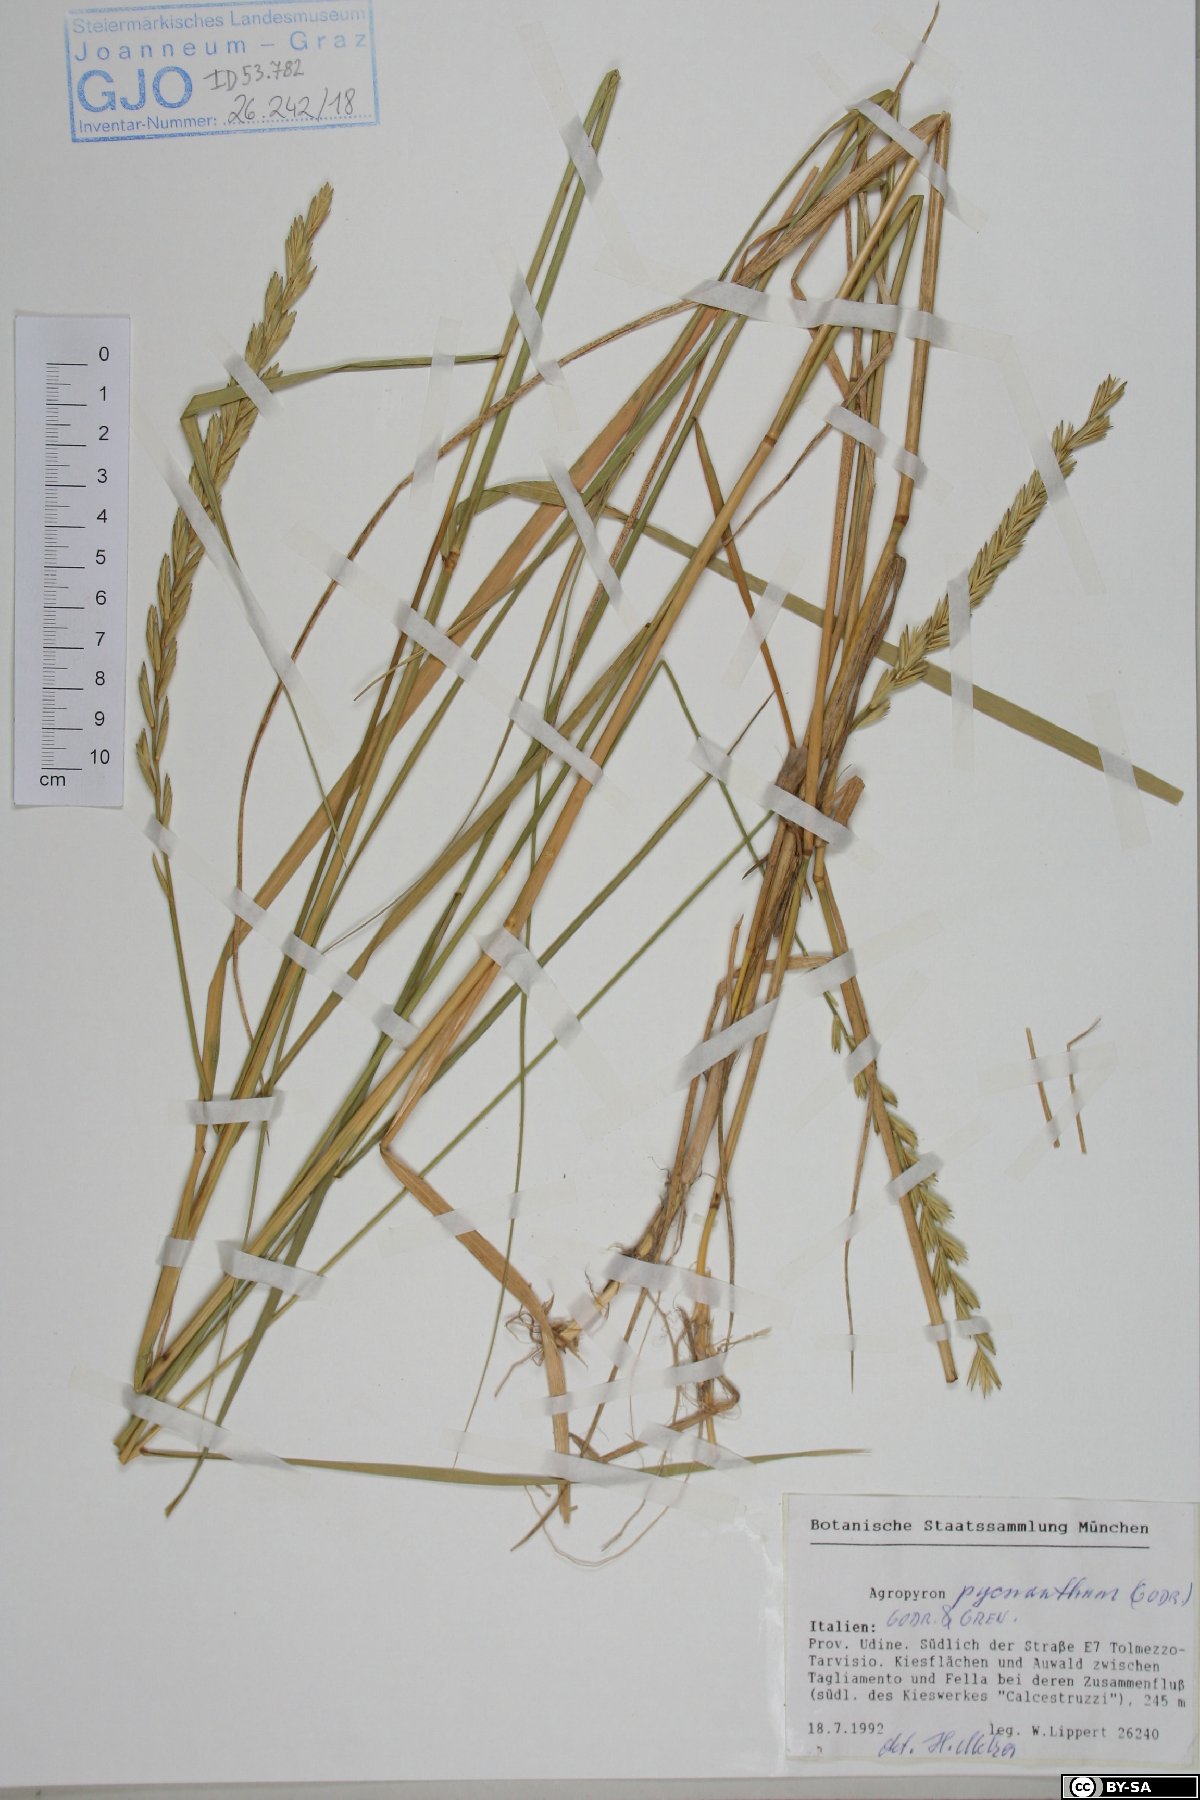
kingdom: Plantae
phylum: Tracheophyta
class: Liliopsida
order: Poales
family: Poaceae
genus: Thinopyrum
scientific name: Thinopyrum acutum
